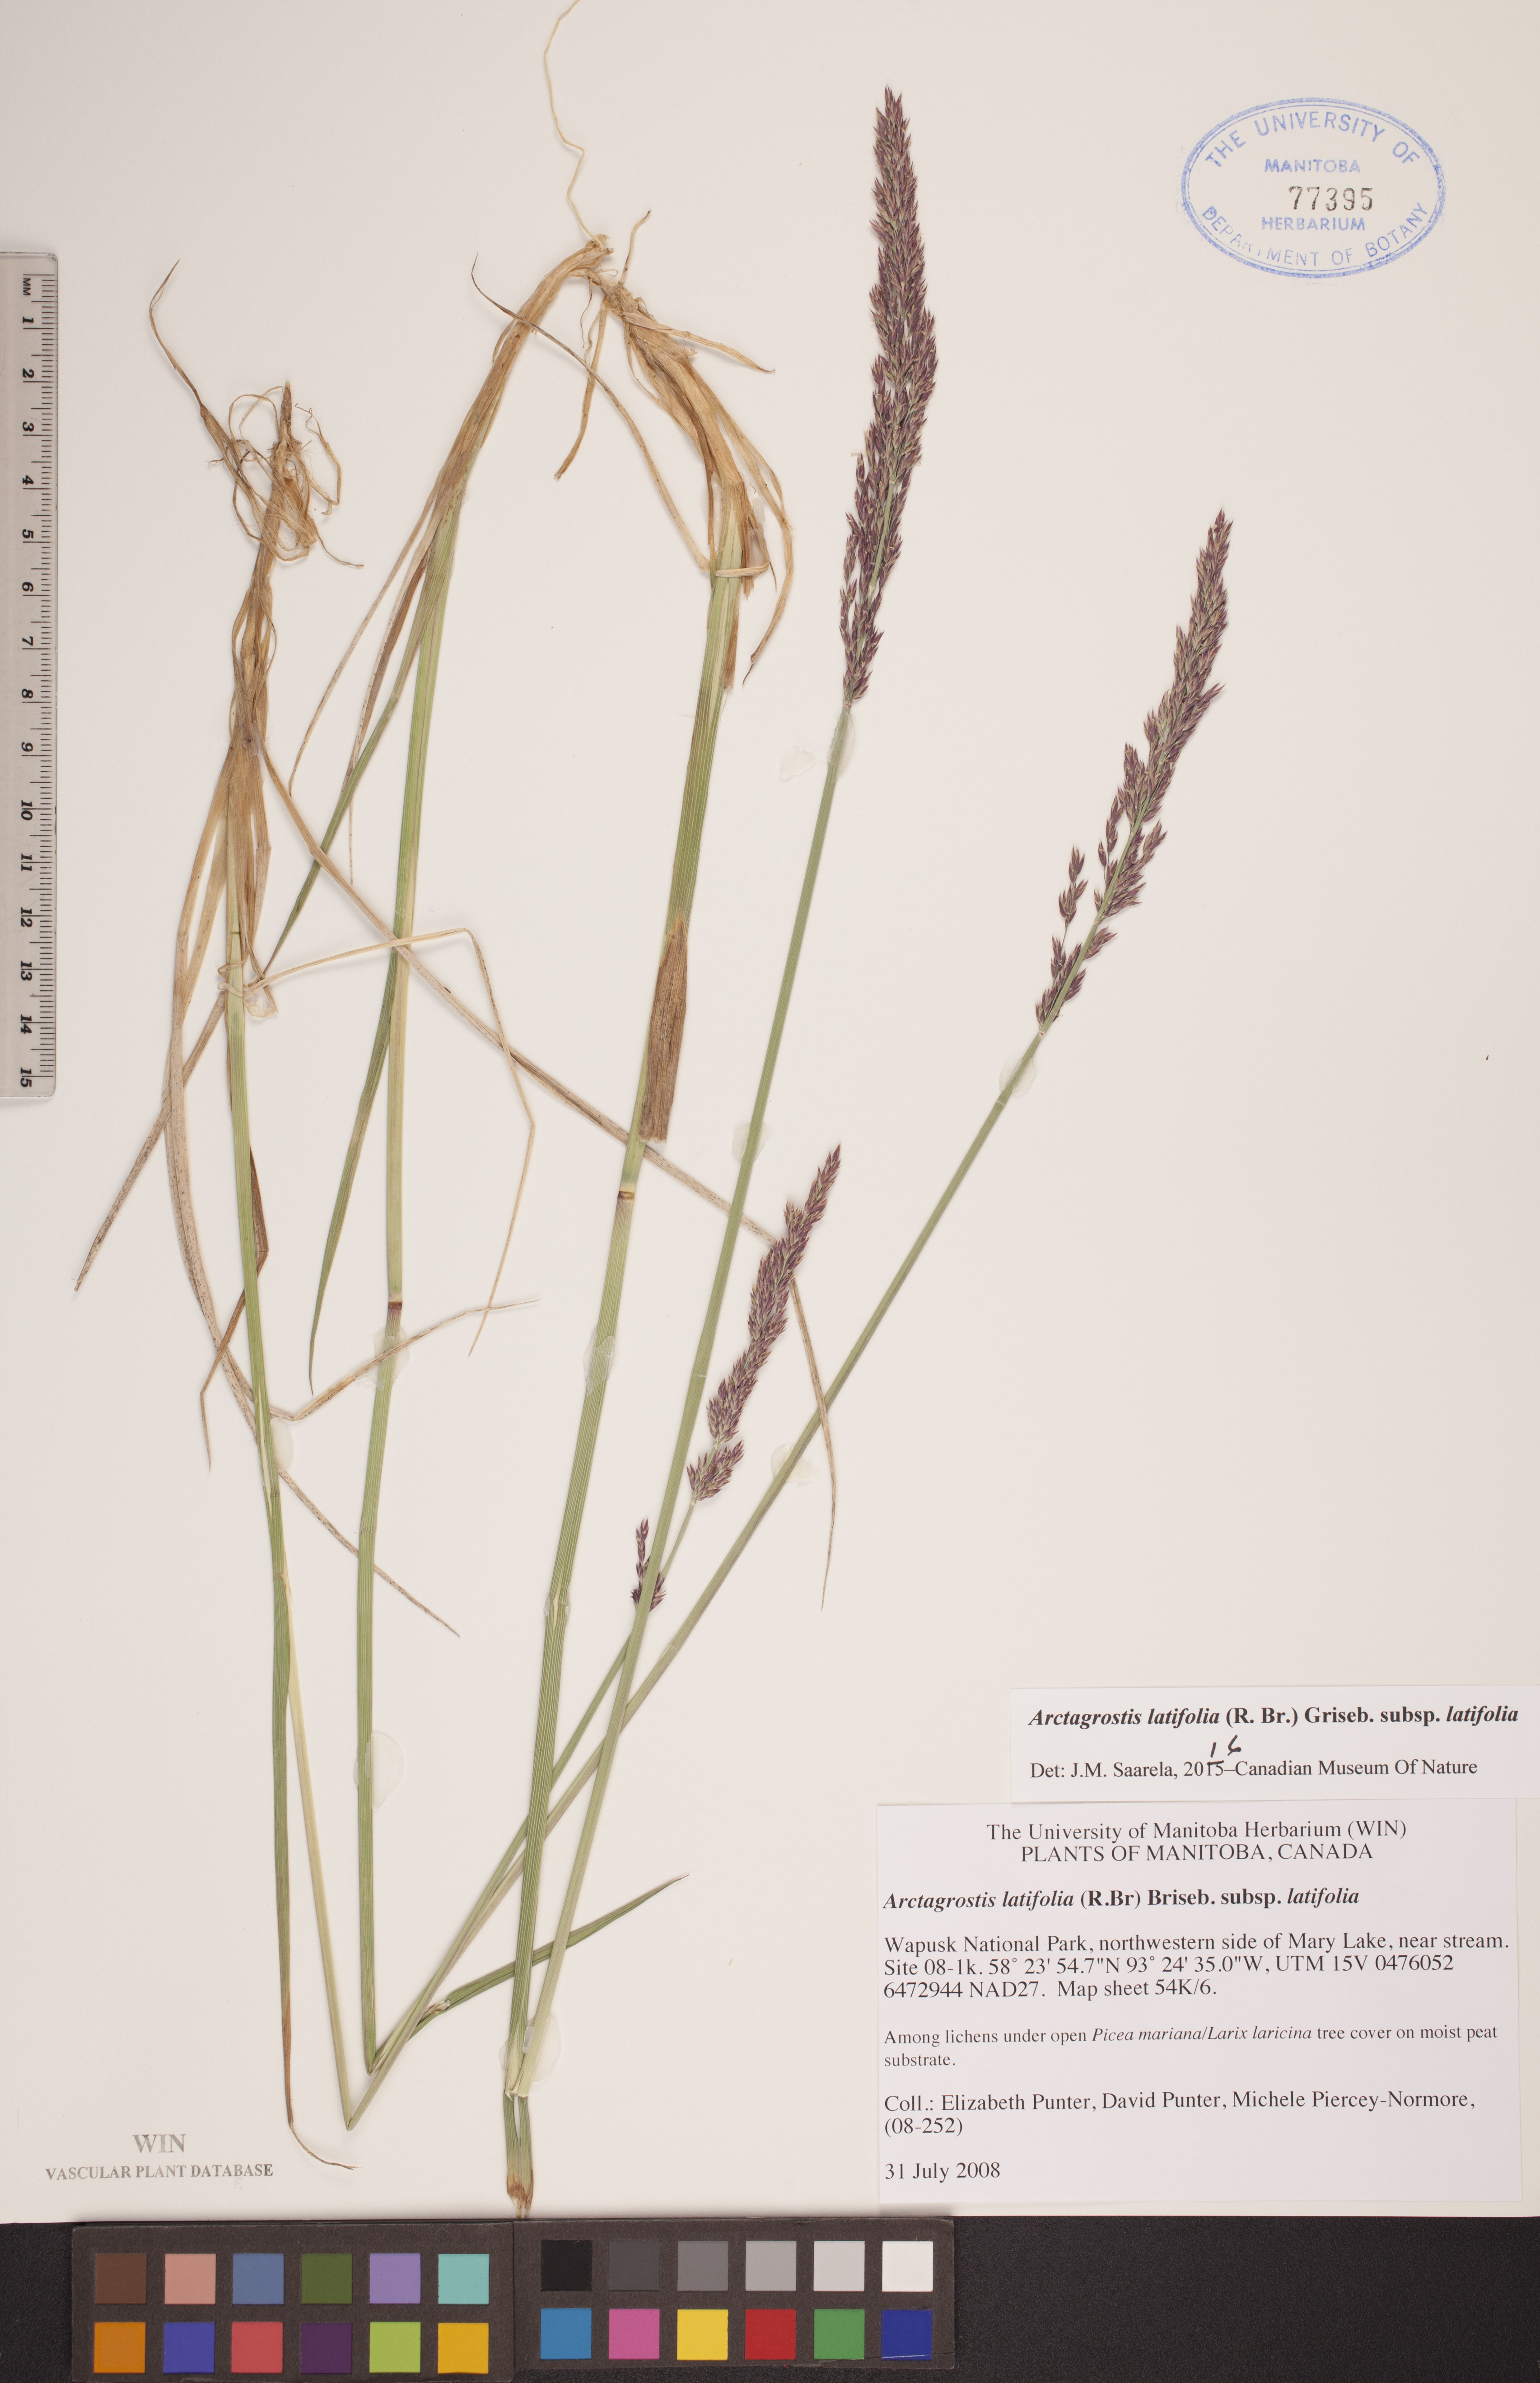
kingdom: Plantae
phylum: Tracheophyta
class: Liliopsida
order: Poales
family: Poaceae
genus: Arctagrostis
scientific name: Arctagrostis latifolia
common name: Arctic grass
